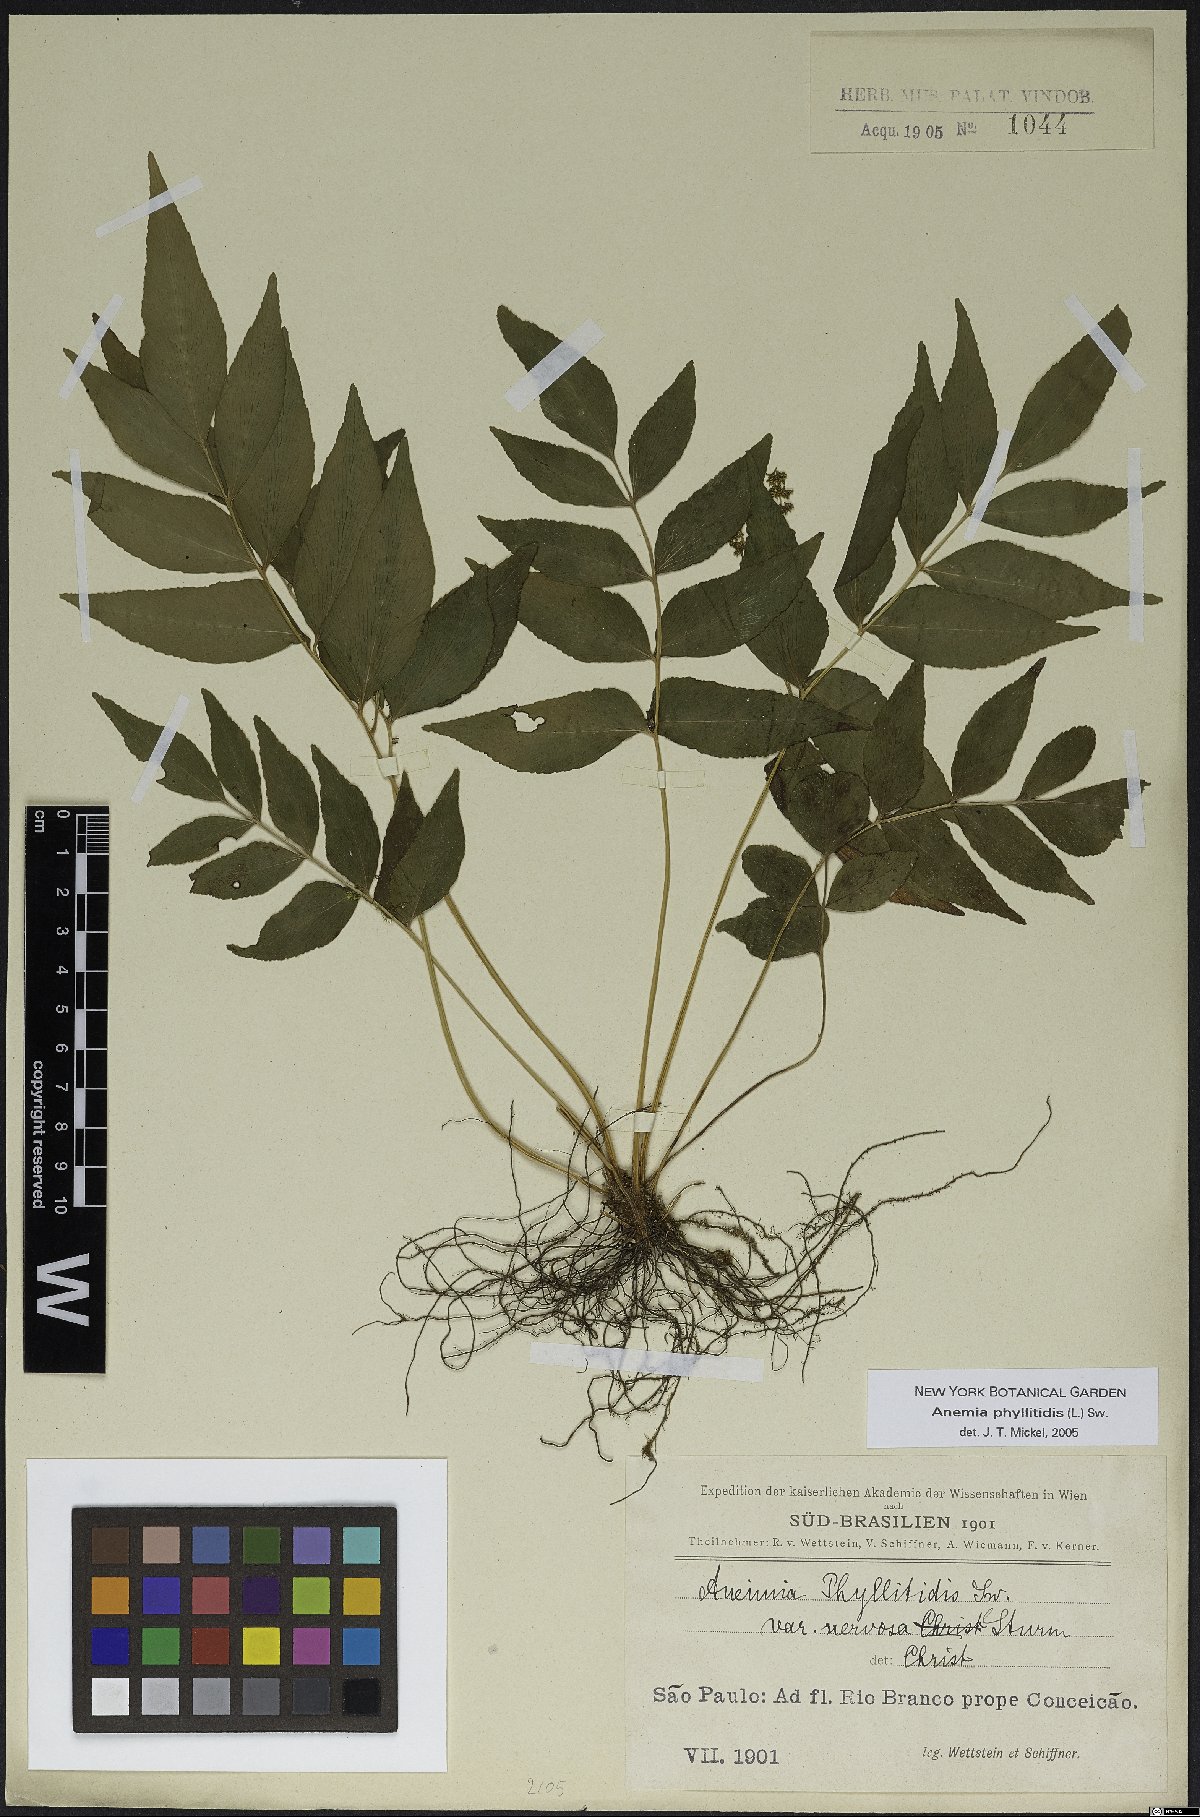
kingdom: Plantae
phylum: Tracheophyta
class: Polypodiopsida
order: Schizaeales
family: Anemiaceae
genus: Anemia
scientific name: Anemia phyllitidis
